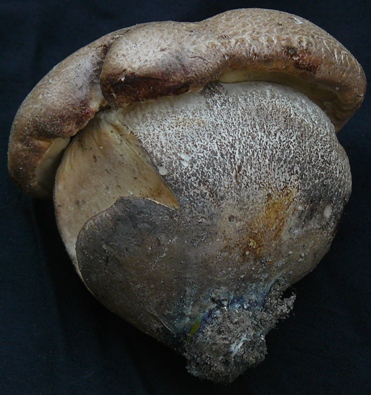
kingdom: Fungi
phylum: Basidiomycota
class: Agaricomycetes
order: Boletales
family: Boletaceae
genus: Leccinum
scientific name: Leccinum duriusculum
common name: poppel-skælrørhat
